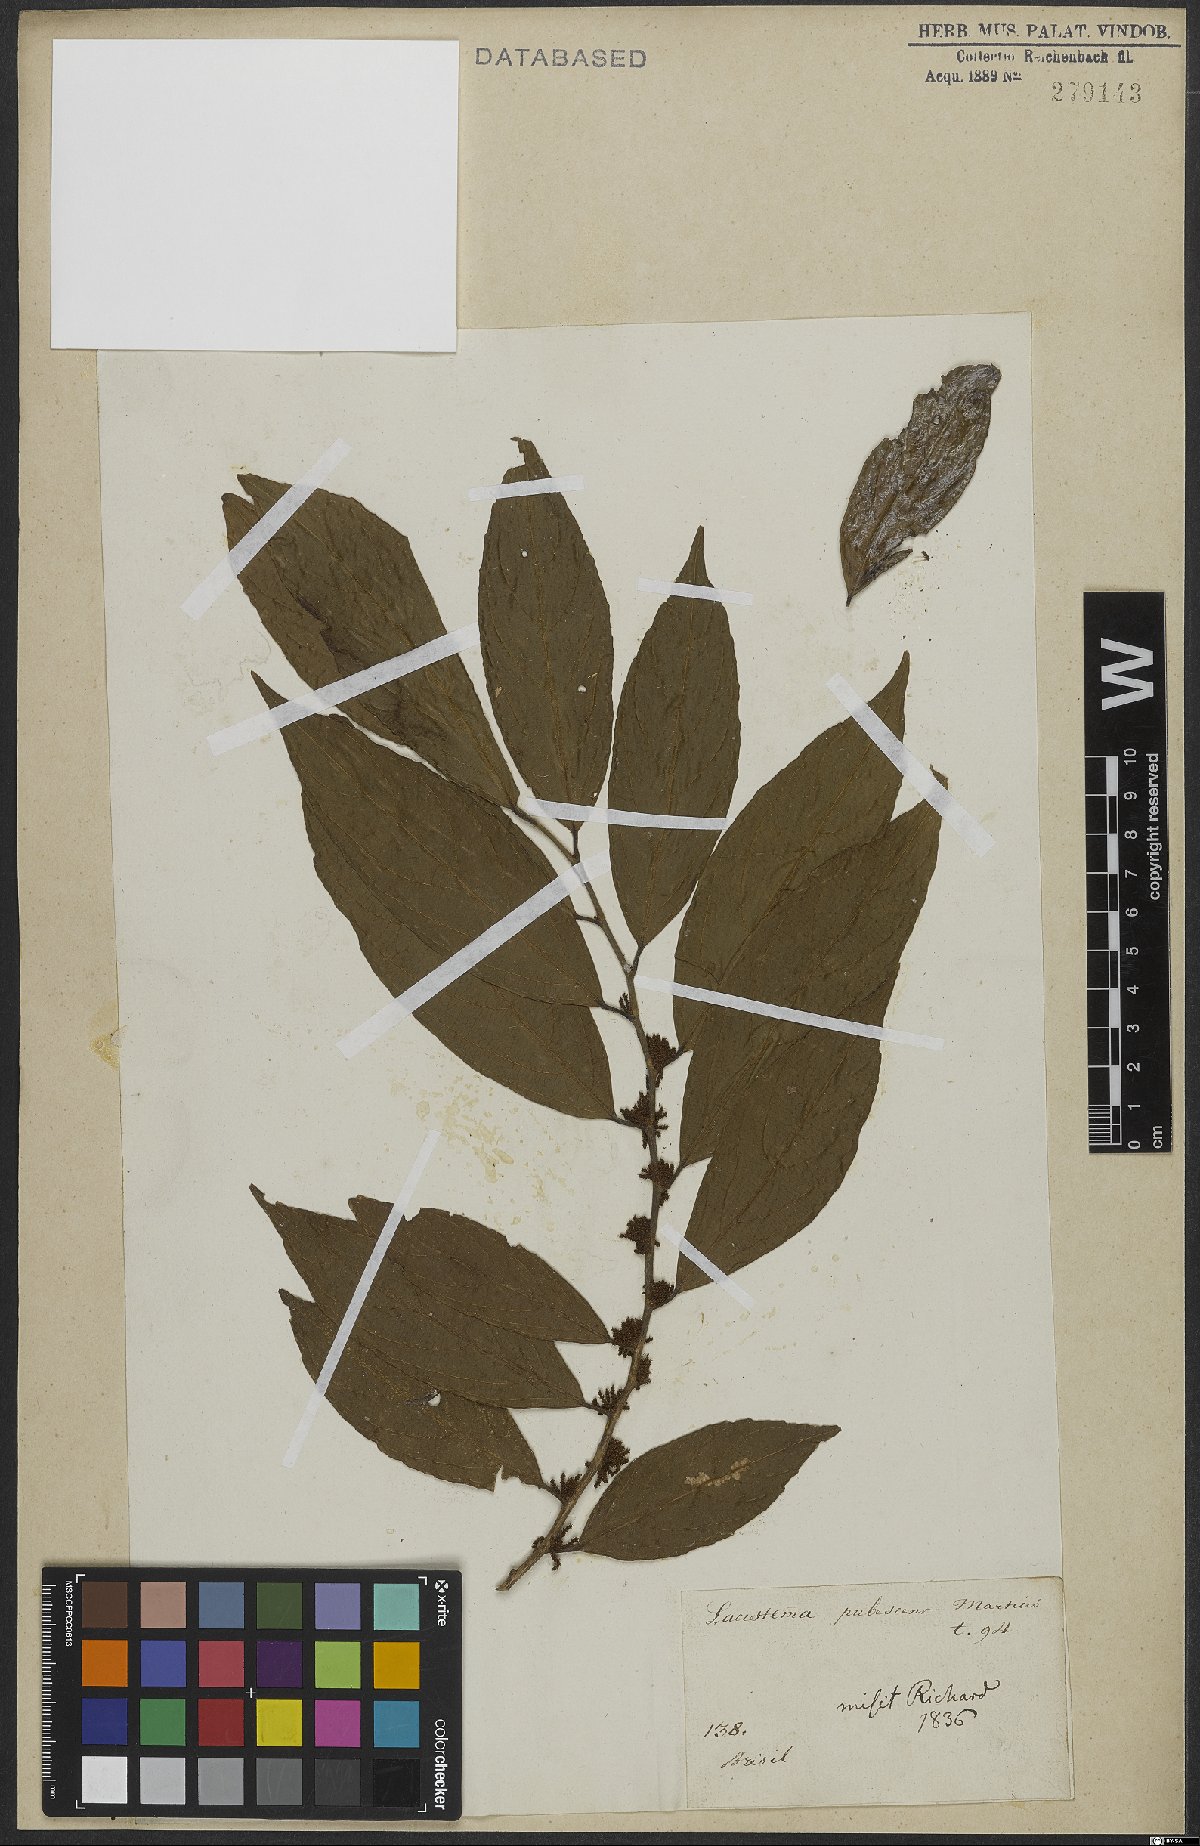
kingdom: Plantae
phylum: Tracheophyta
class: Magnoliopsida
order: Malpighiales
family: Lacistemataceae
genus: Lacistema
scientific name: Lacistema pubescens
